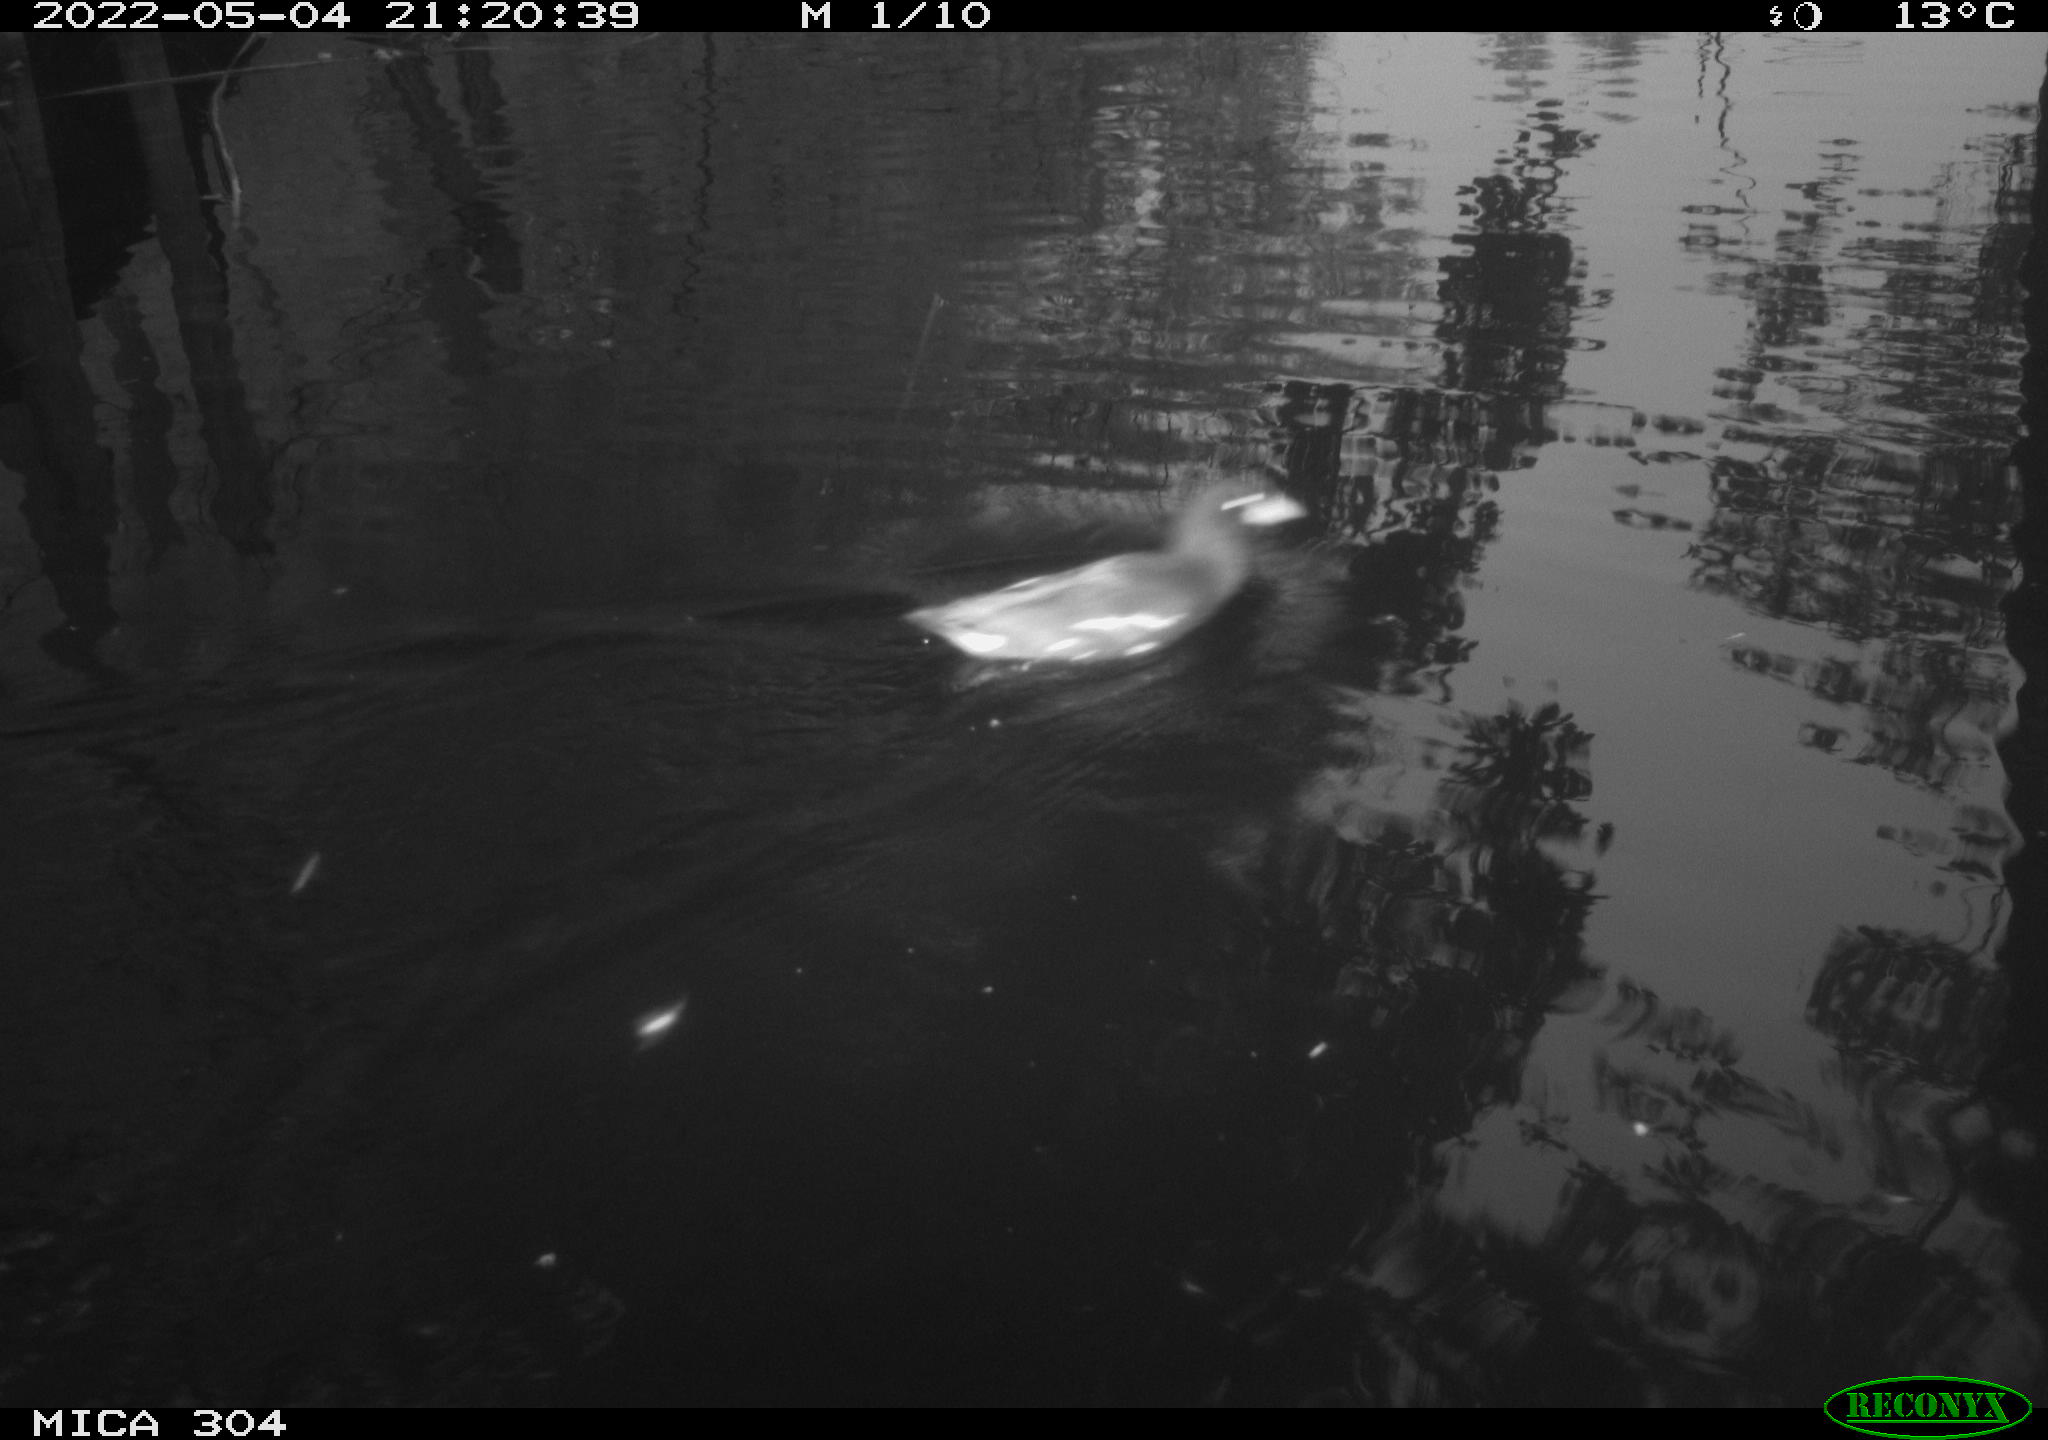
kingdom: Animalia
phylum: Chordata
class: Aves
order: Gruiformes
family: Rallidae
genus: Gallinula
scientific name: Gallinula chloropus
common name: Common moorhen
